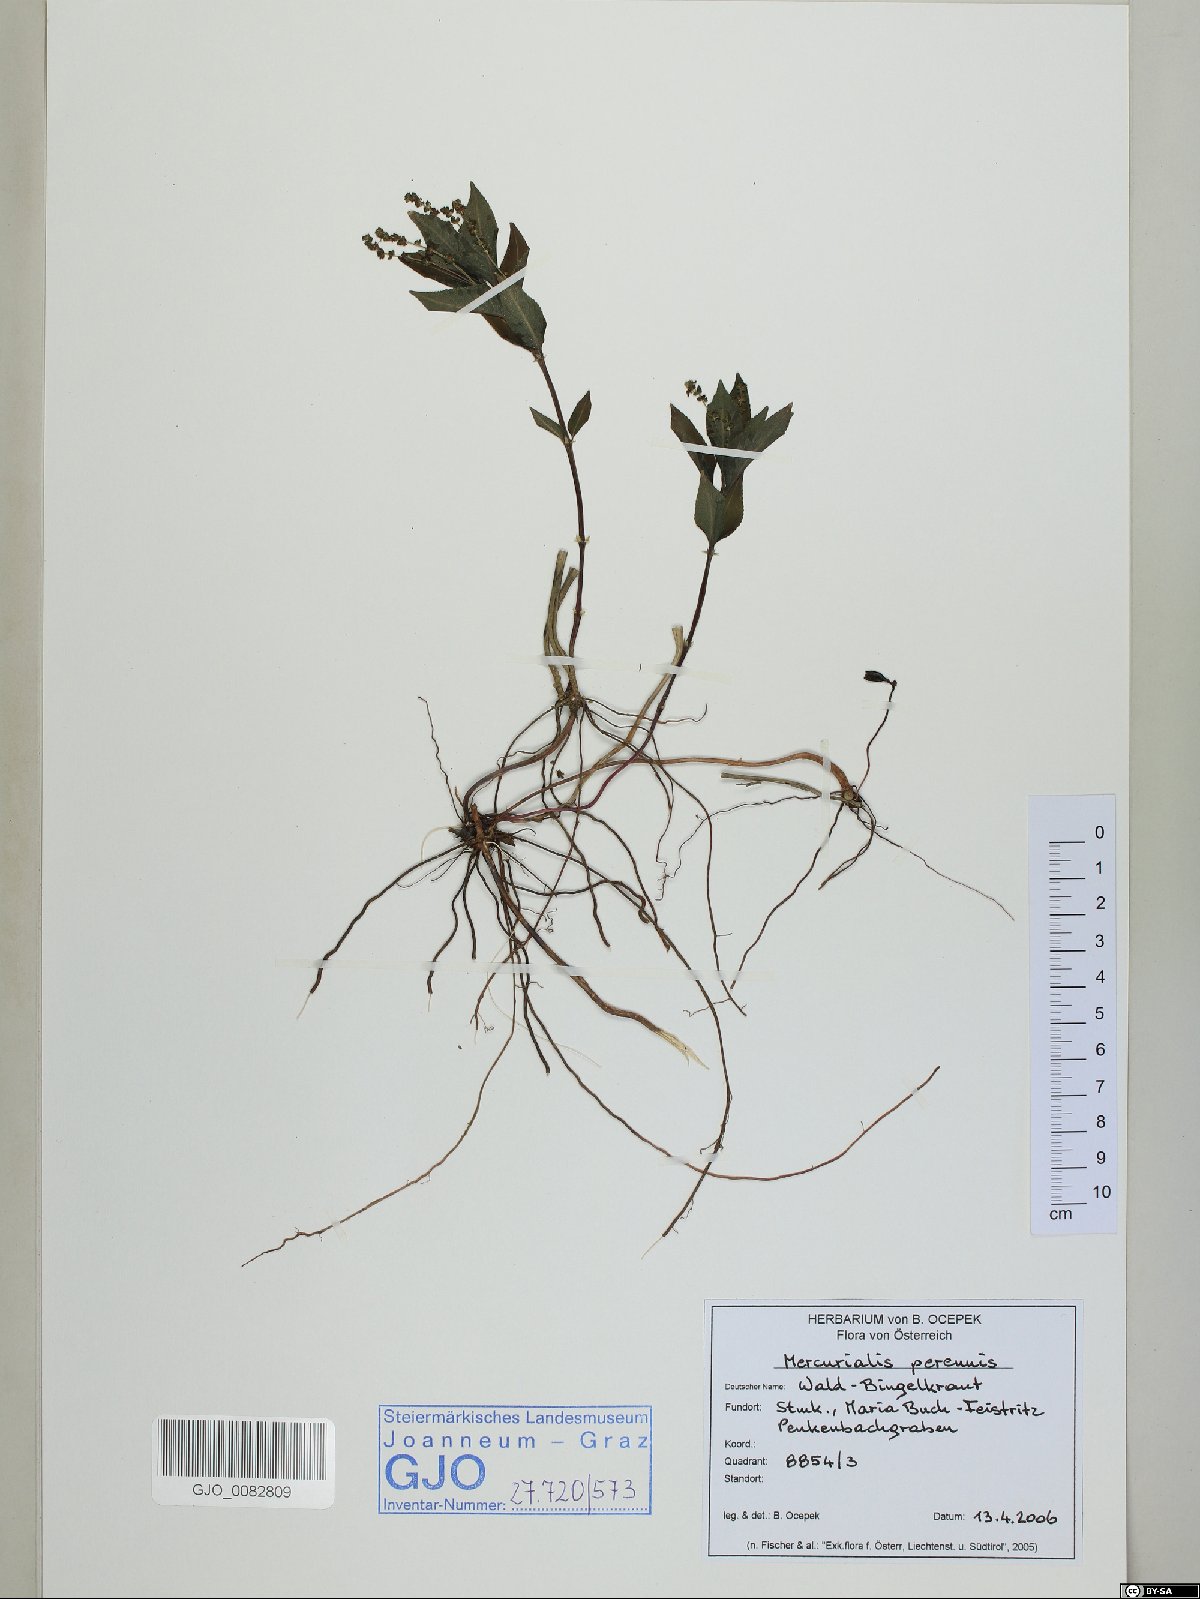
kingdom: Plantae
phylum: Tracheophyta
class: Magnoliopsida
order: Malpighiales
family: Euphorbiaceae
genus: Mercurialis
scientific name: Mercurialis perennis
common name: Dog mercury
